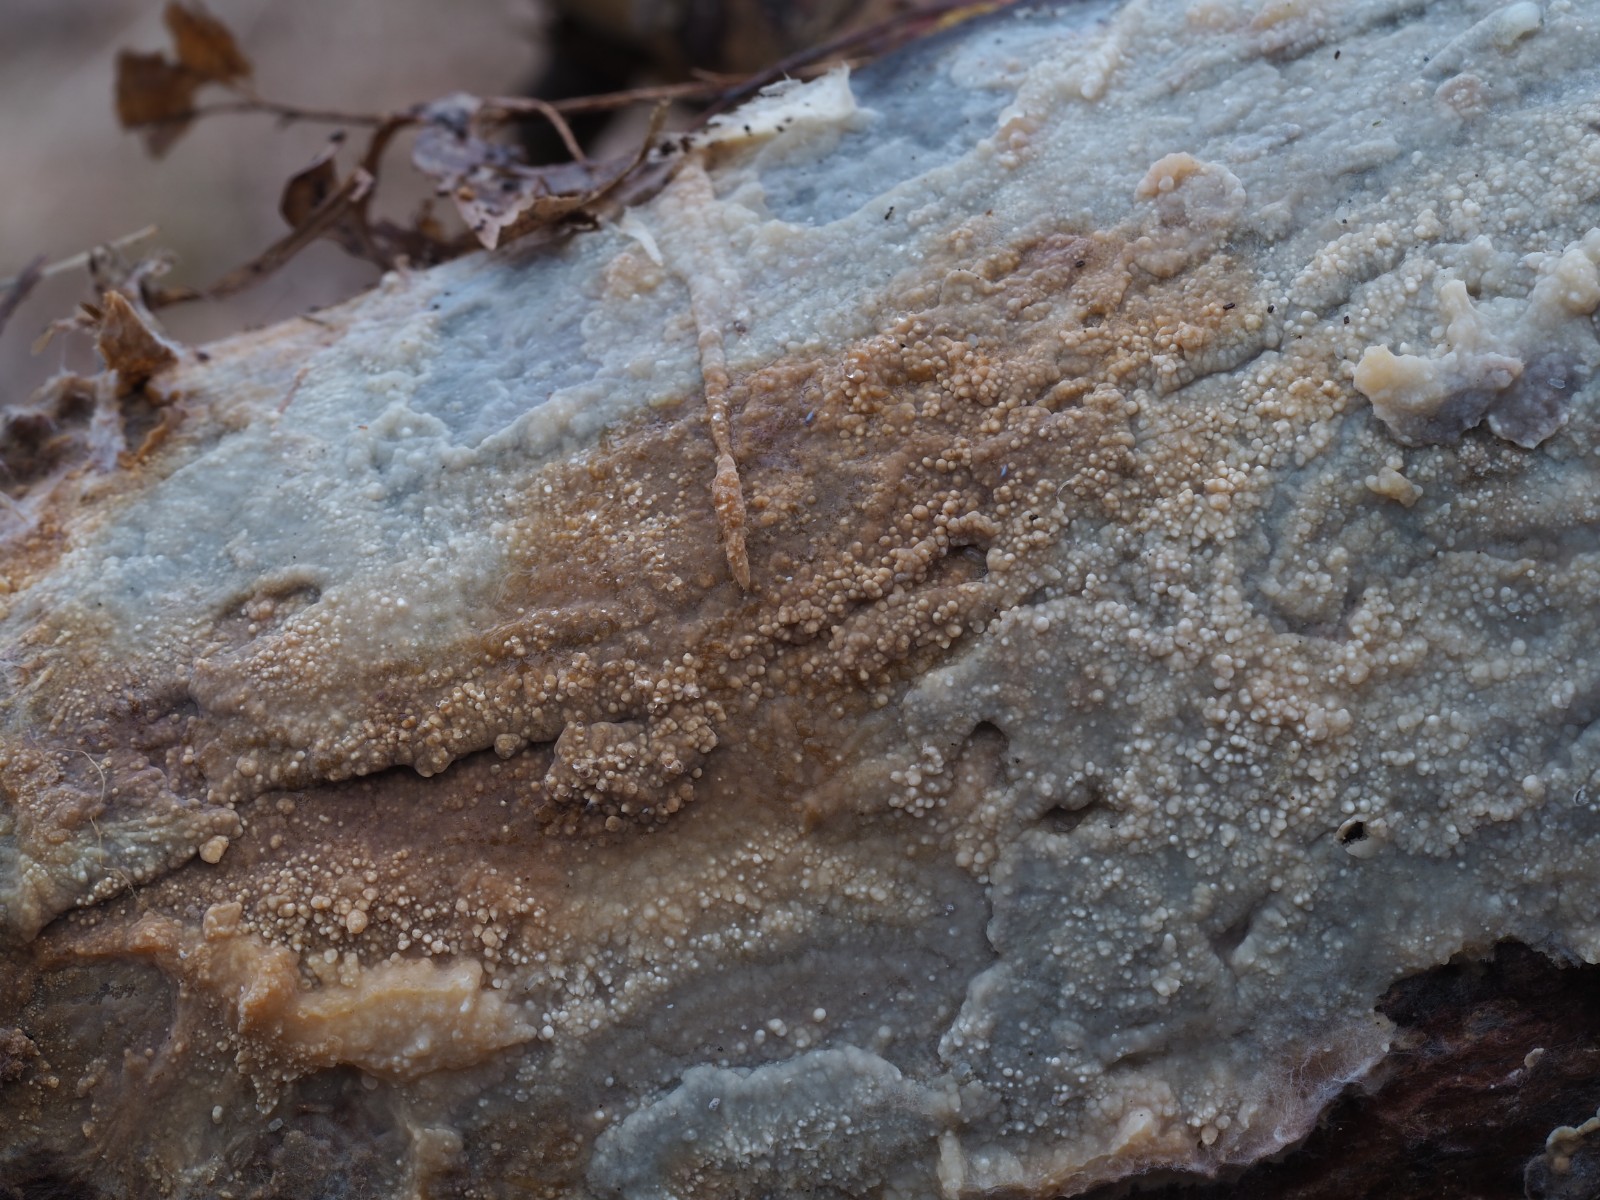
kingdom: Fungi
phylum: Basidiomycota
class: Agaricomycetes
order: Polyporales
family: Phanerochaetaceae
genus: Phlebiopsis
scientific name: Phlebiopsis gigantea
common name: kæmpebarksvamp
